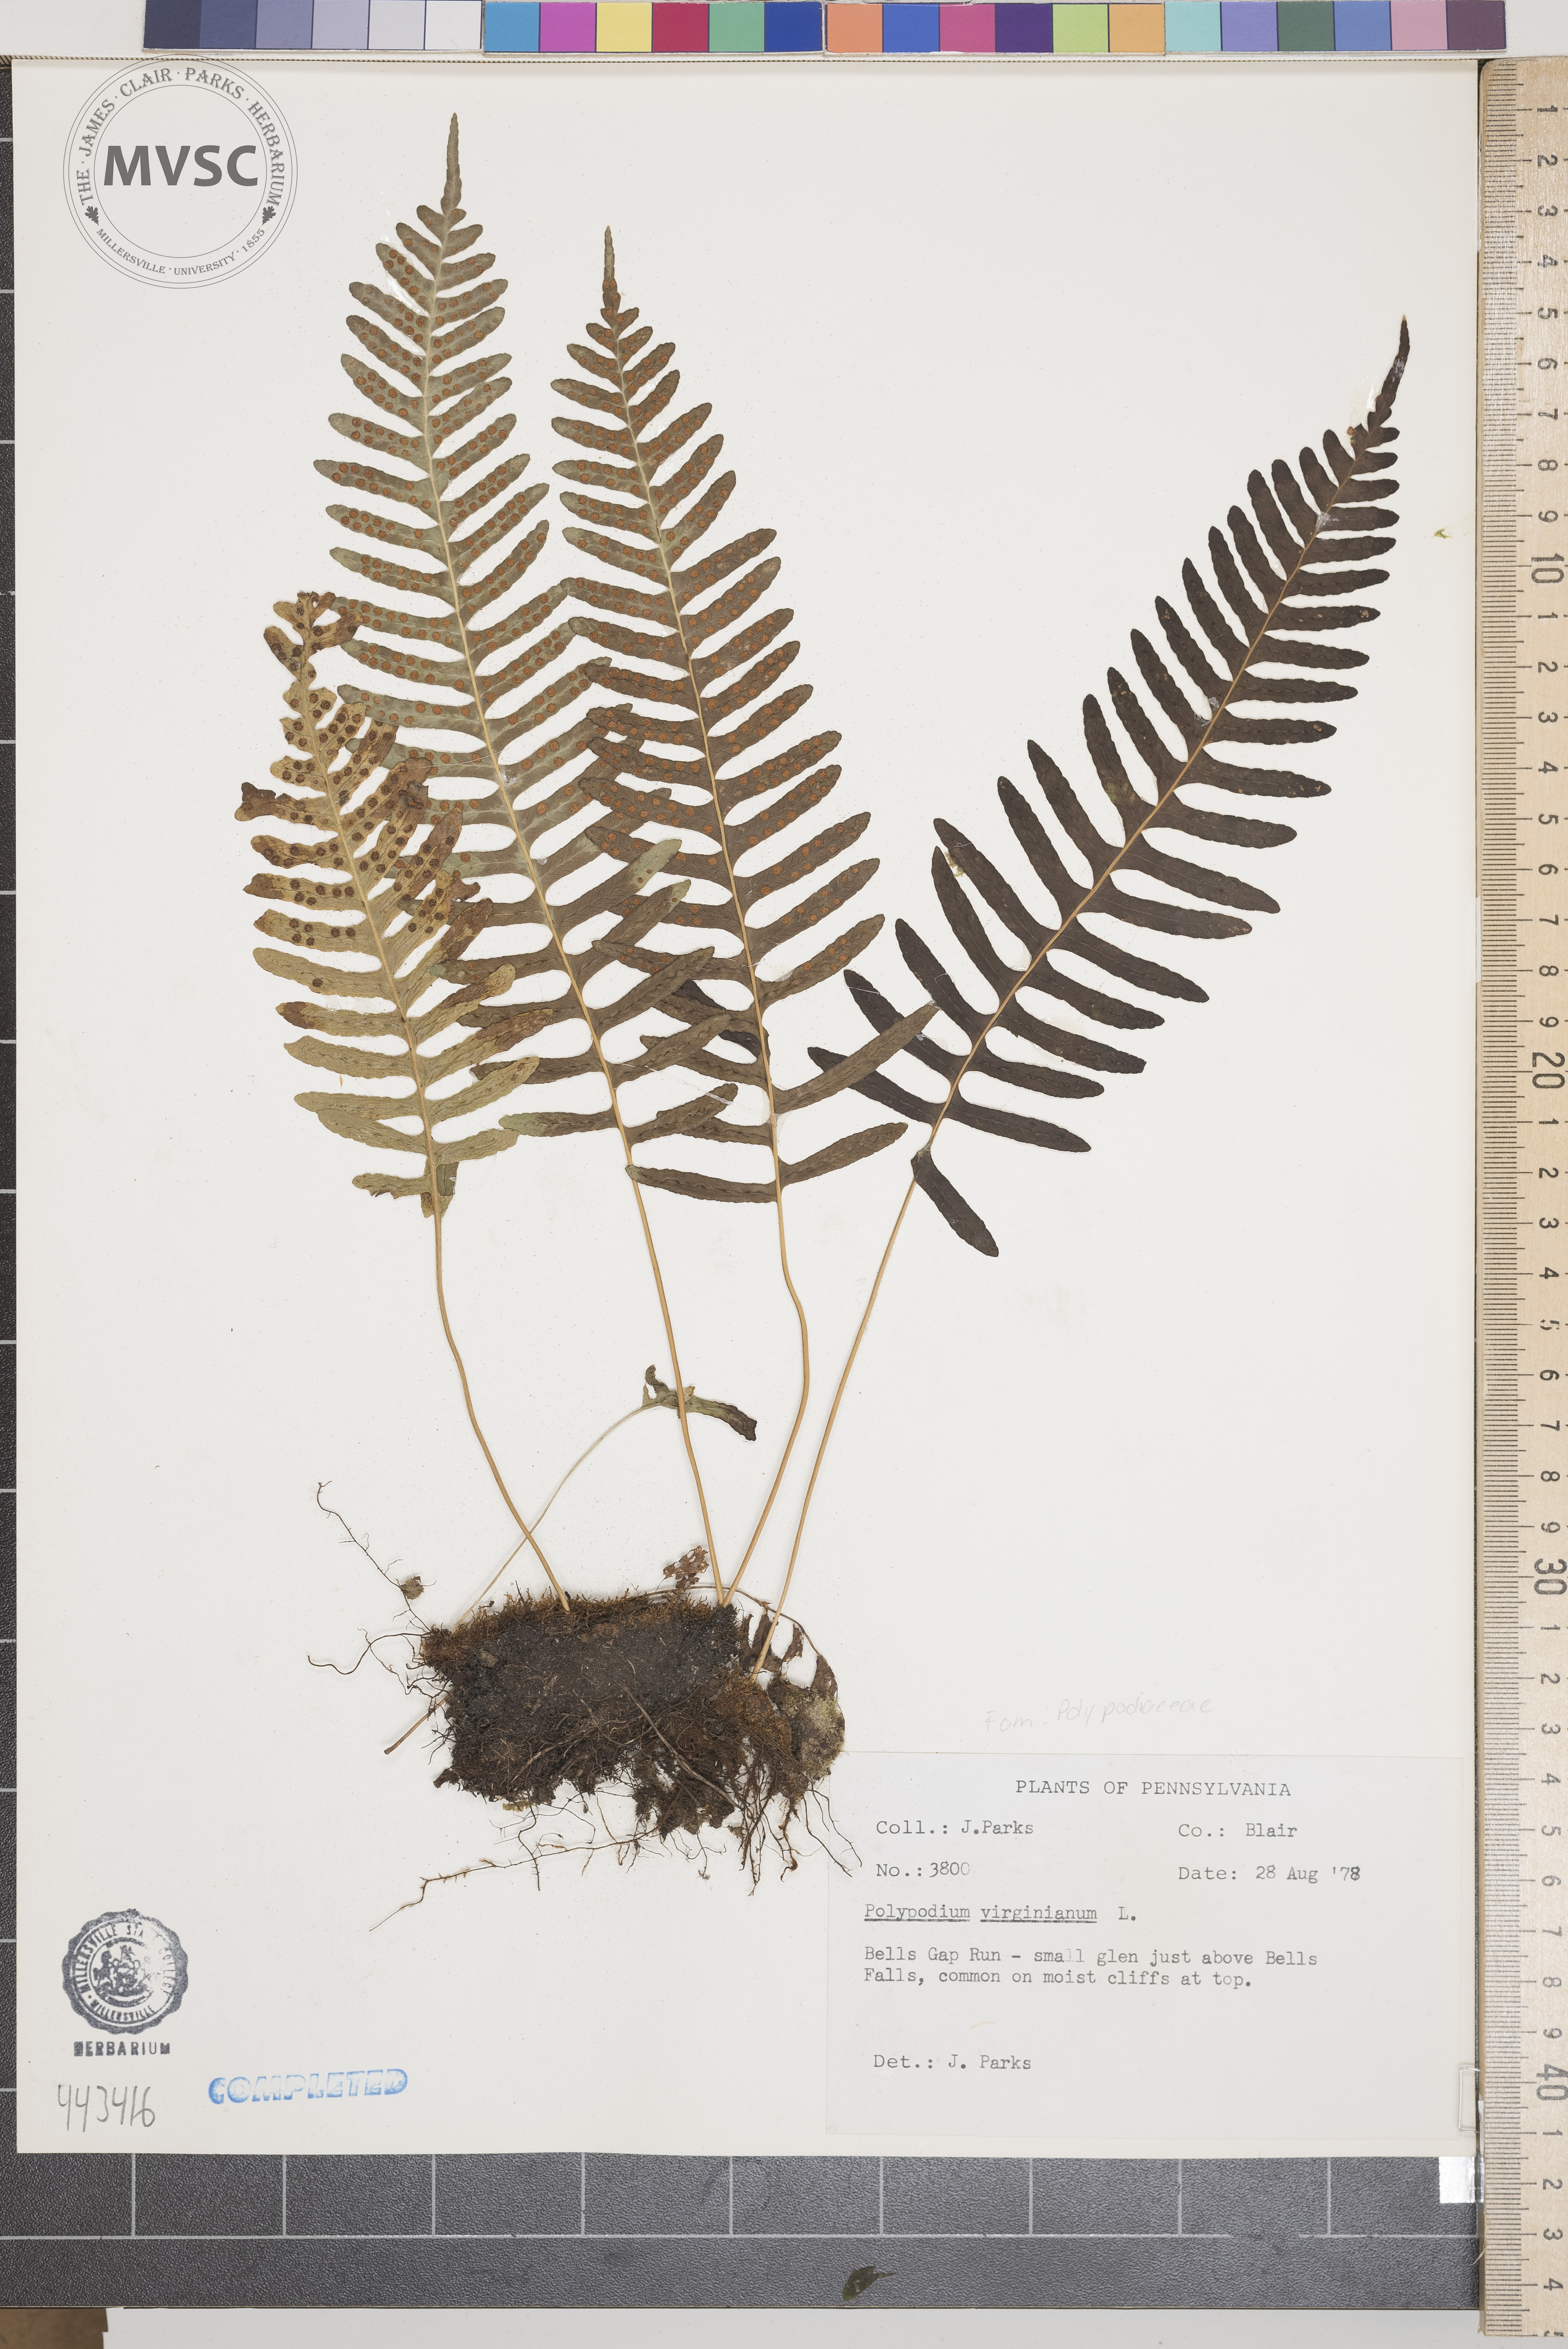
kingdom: Plantae
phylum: Tracheophyta
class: Polypodiopsida
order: Polypodiales
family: Polypodiaceae
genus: Polypodium
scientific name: Polypodium virginianum
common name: American wall fern
